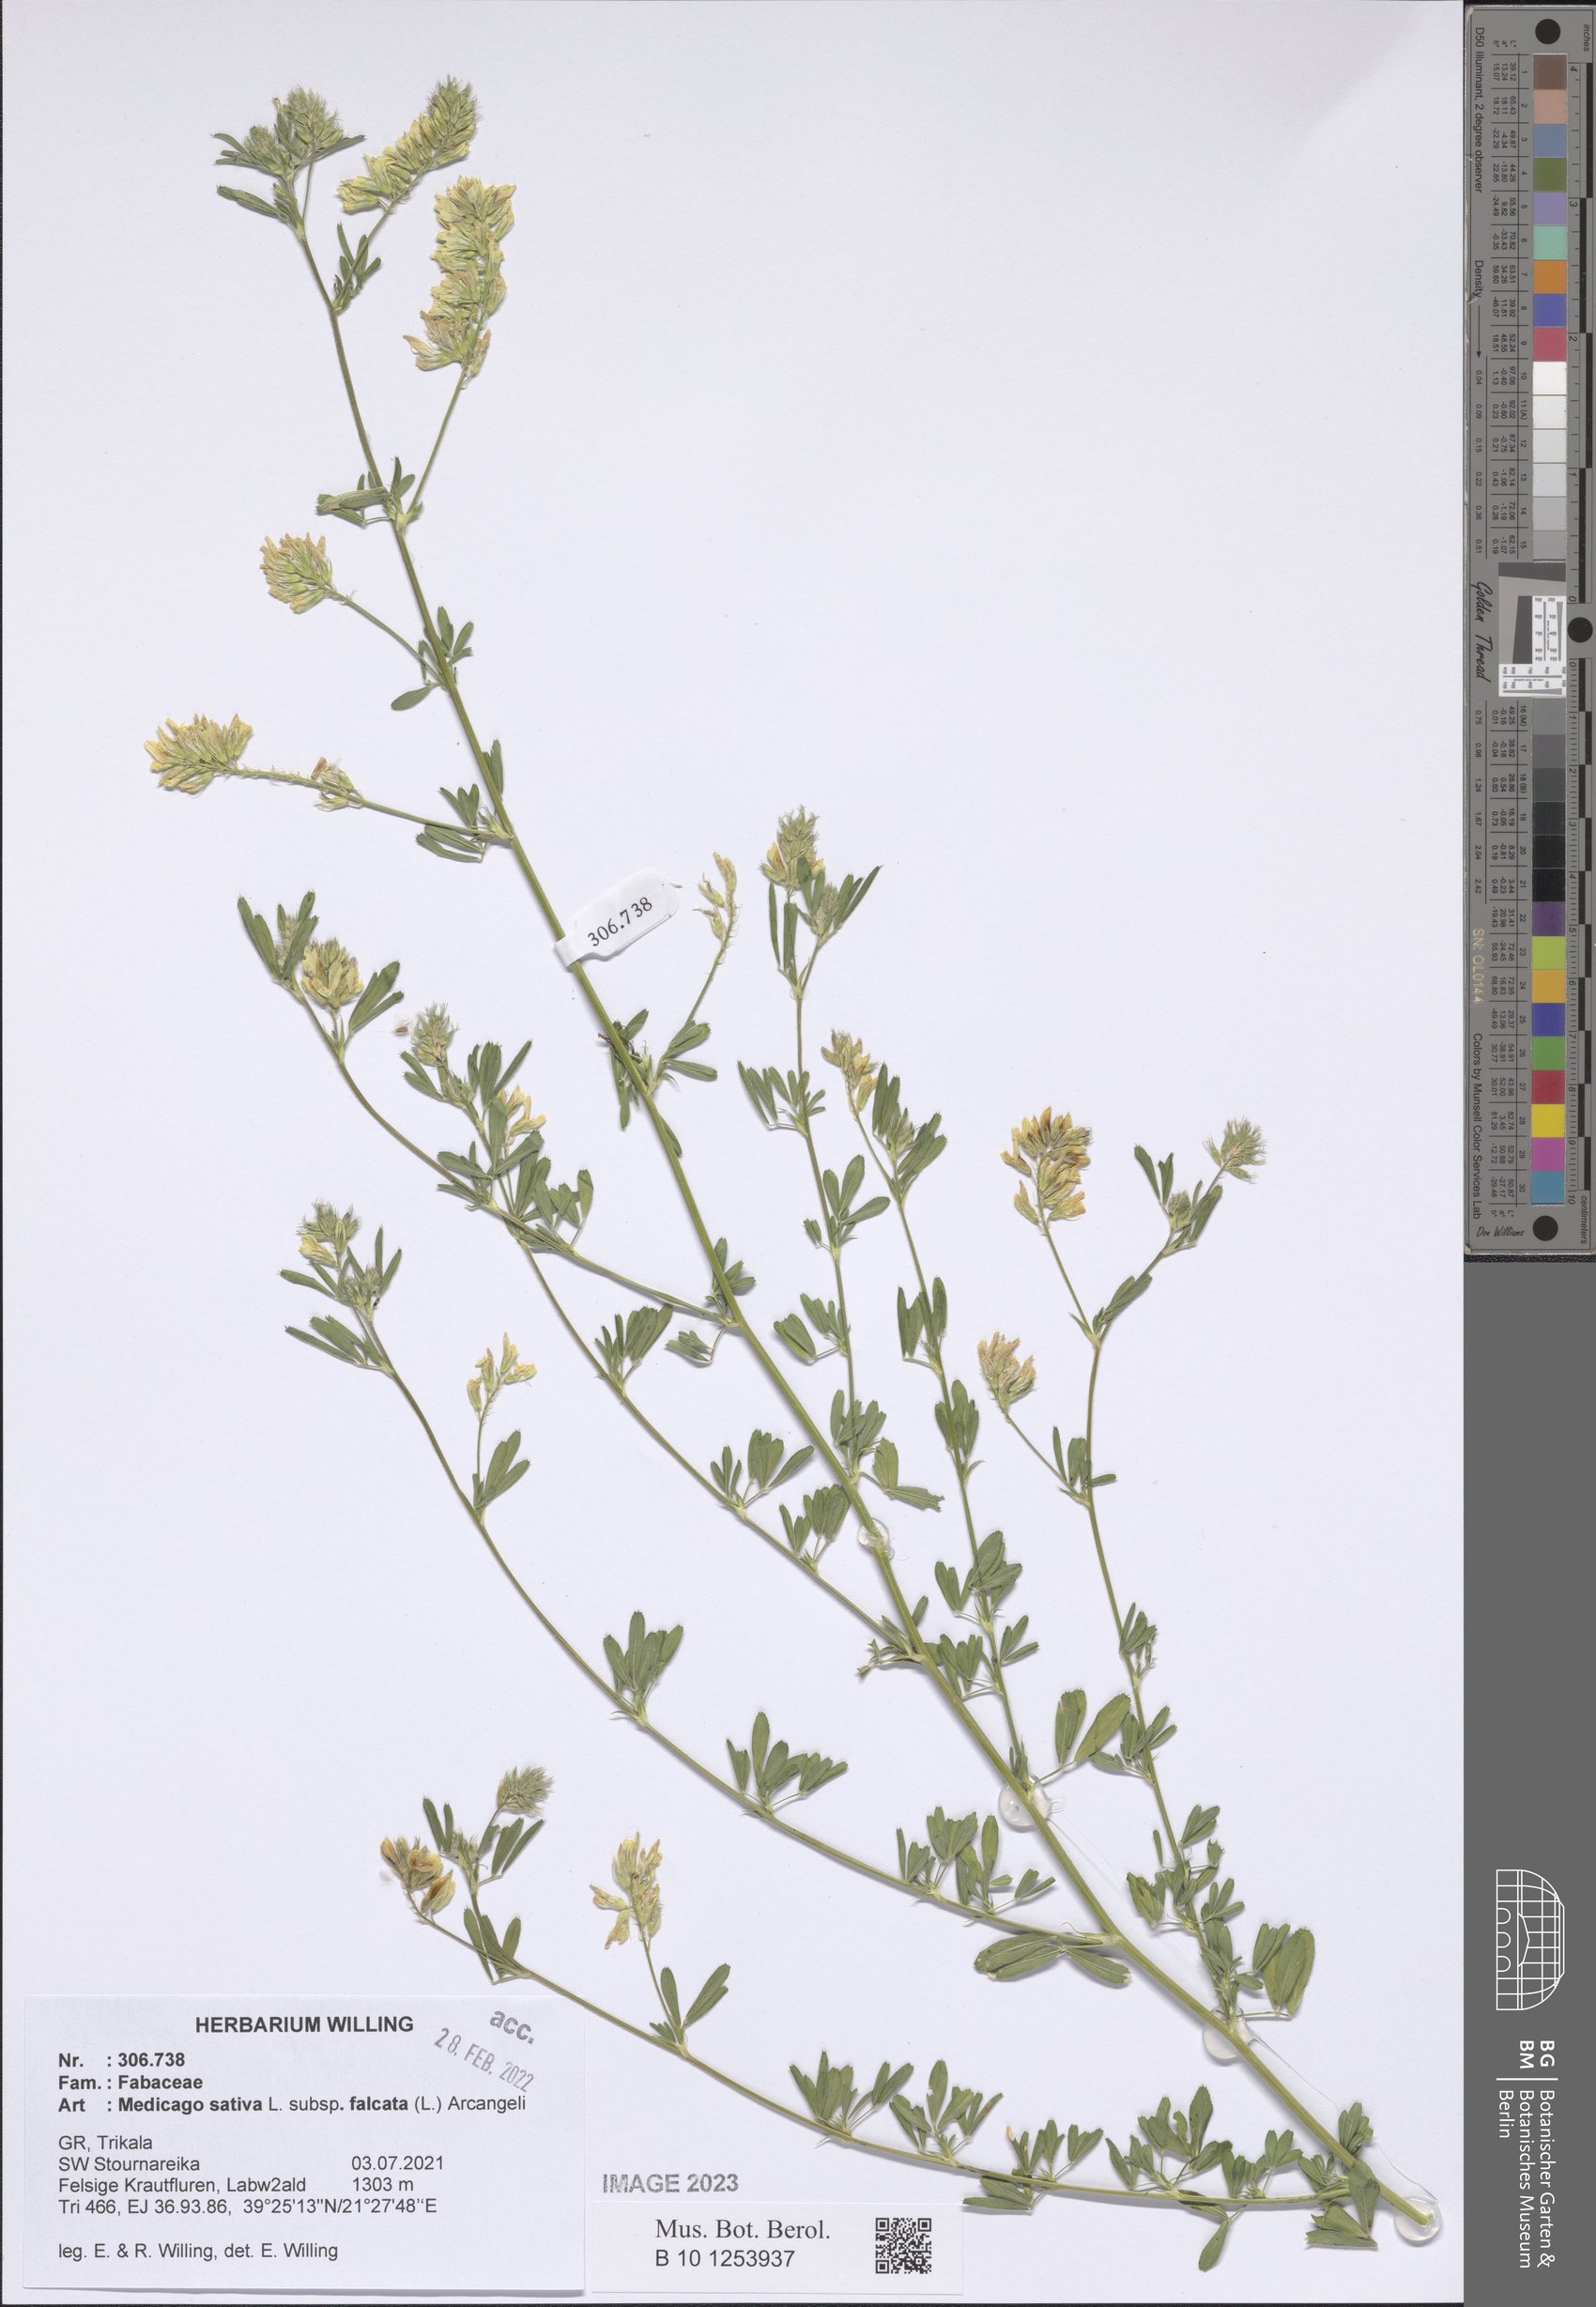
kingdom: Plantae
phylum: Tracheophyta
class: Magnoliopsida
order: Fabales
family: Fabaceae
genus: Medicago
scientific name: Medicago falcata
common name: Sickle medick
